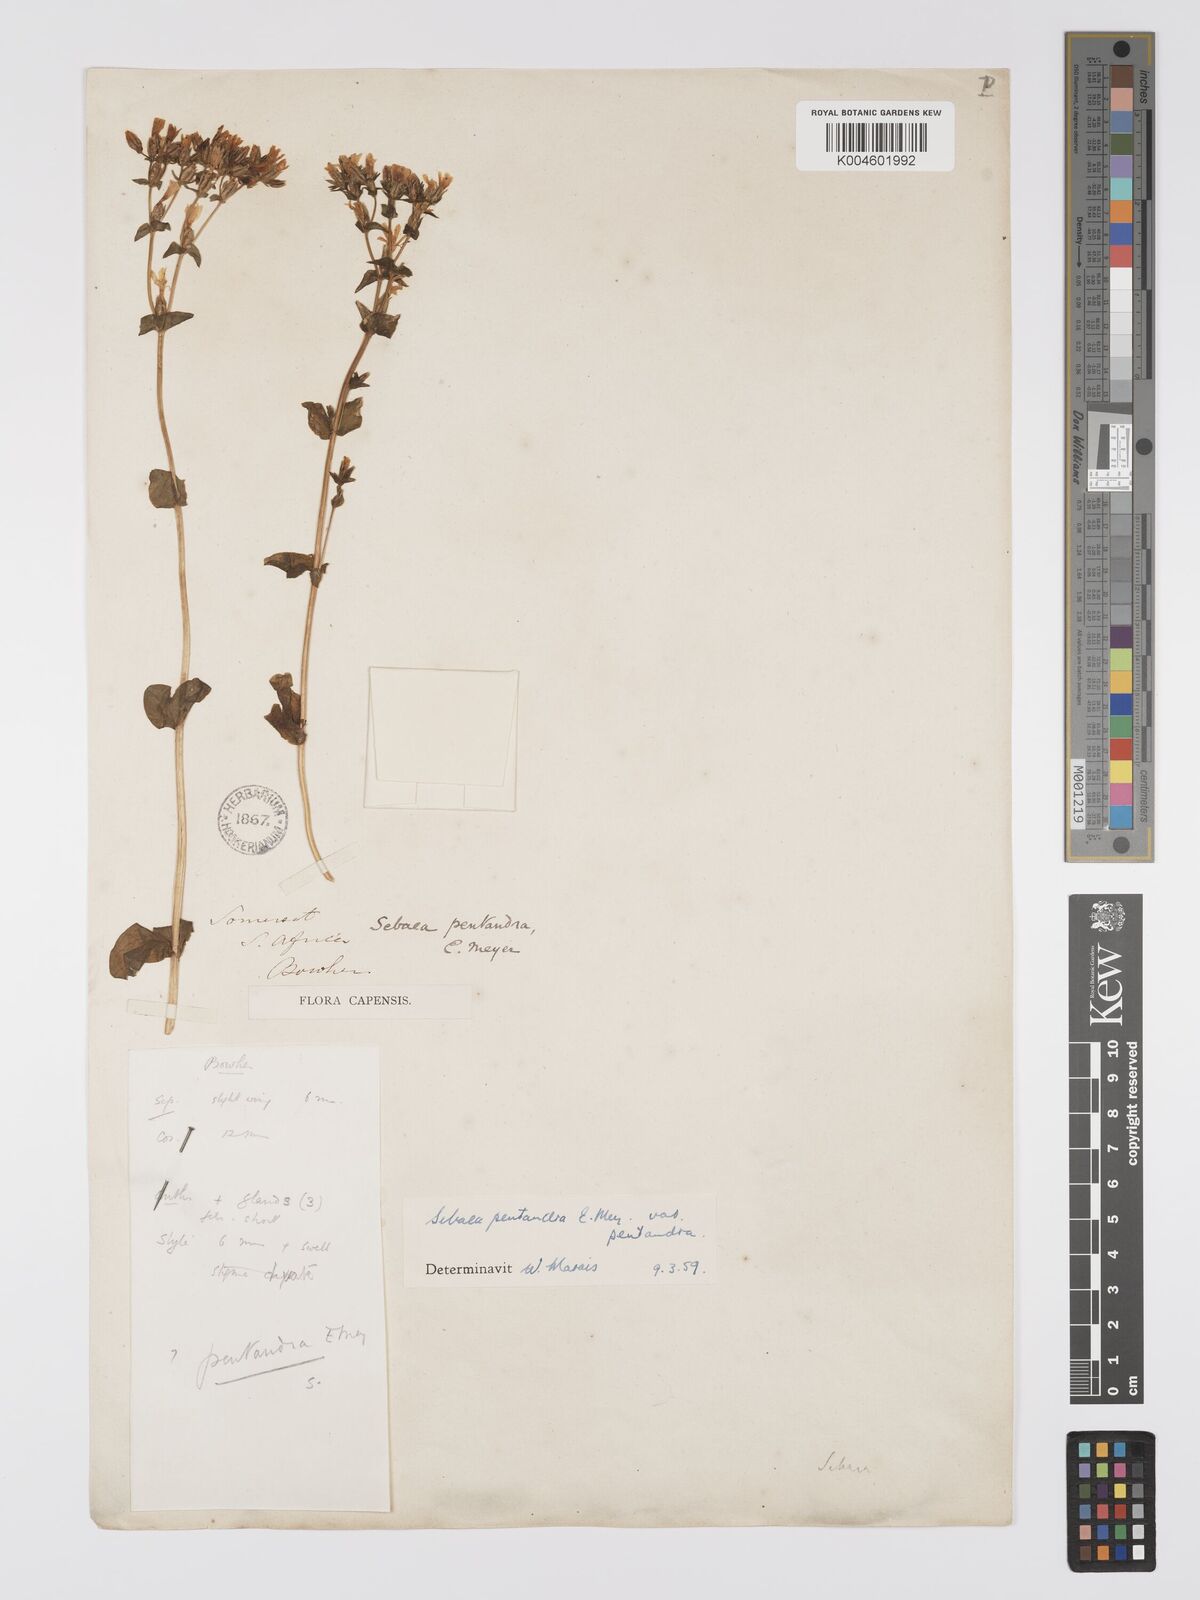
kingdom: Plantae
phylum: Tracheophyta
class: Magnoliopsida
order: Gentianales
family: Gentianaceae
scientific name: Gentianaceae
